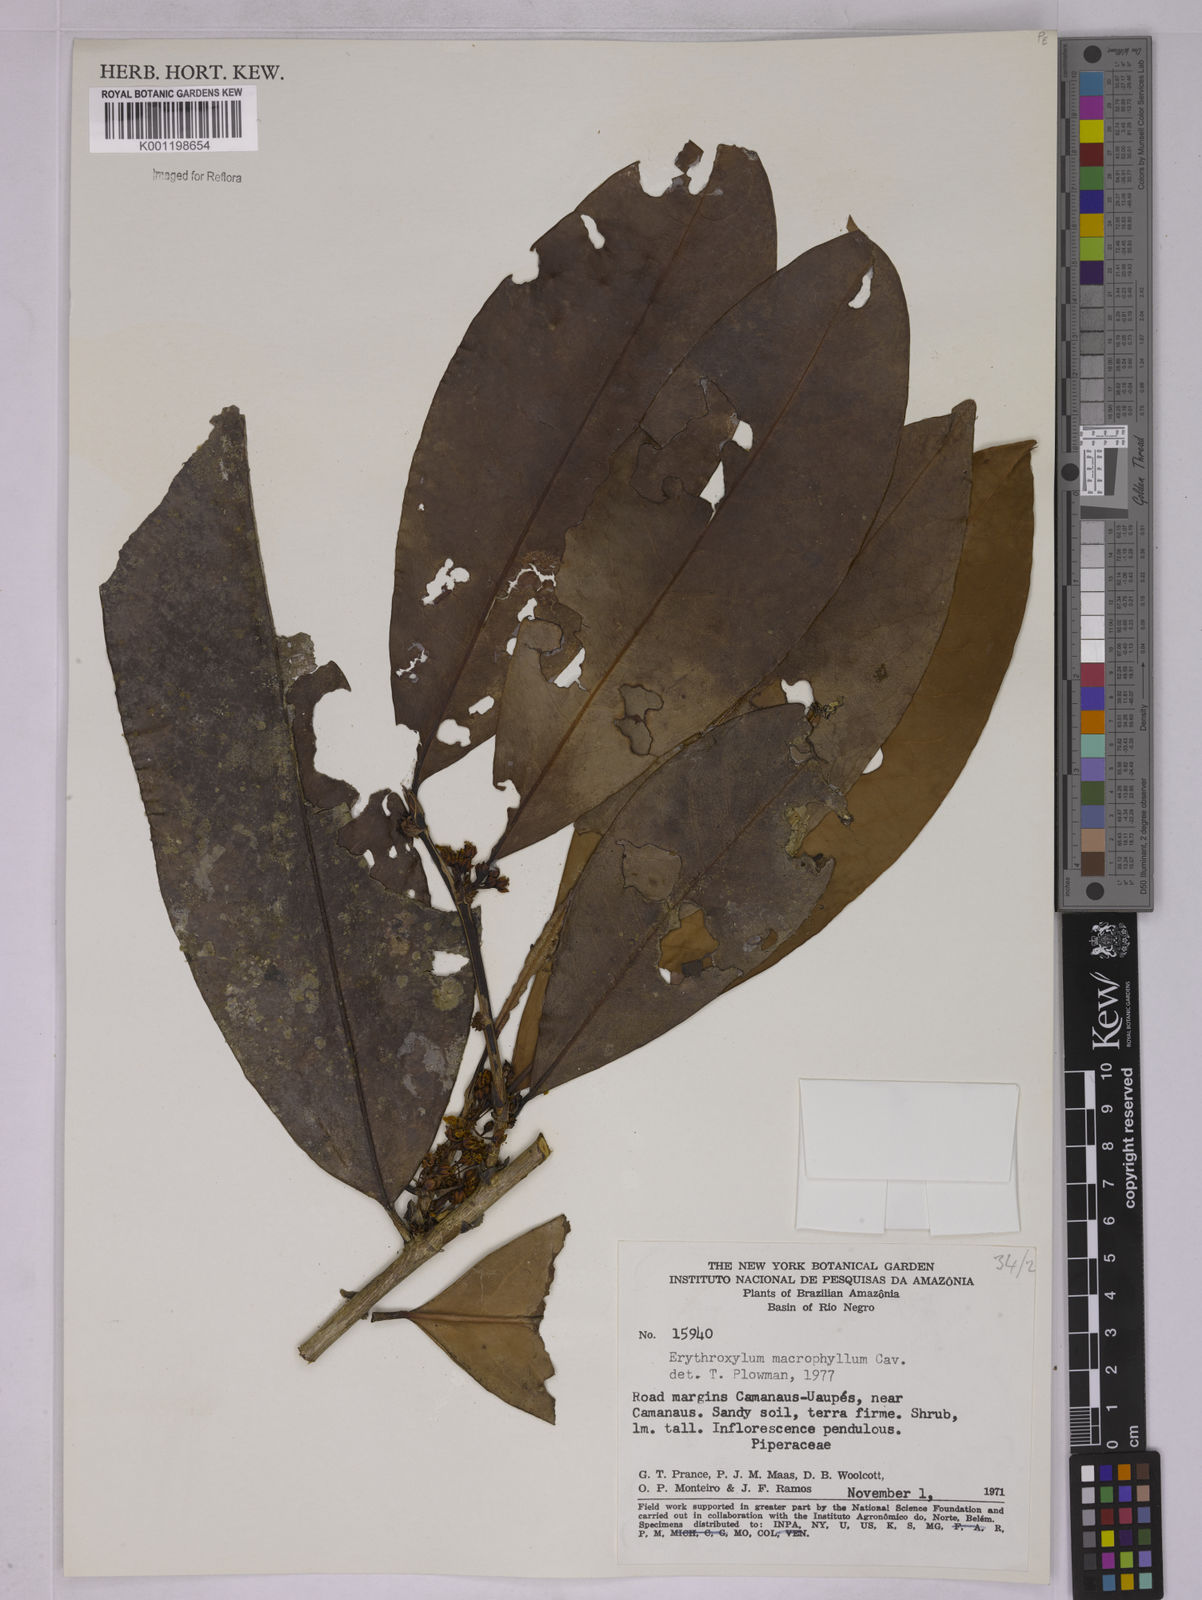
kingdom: Plantae
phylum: Tracheophyta
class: Magnoliopsida
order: Malpighiales
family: Erythroxylaceae
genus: Erythroxylum
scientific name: Erythroxylum macrophyllum
